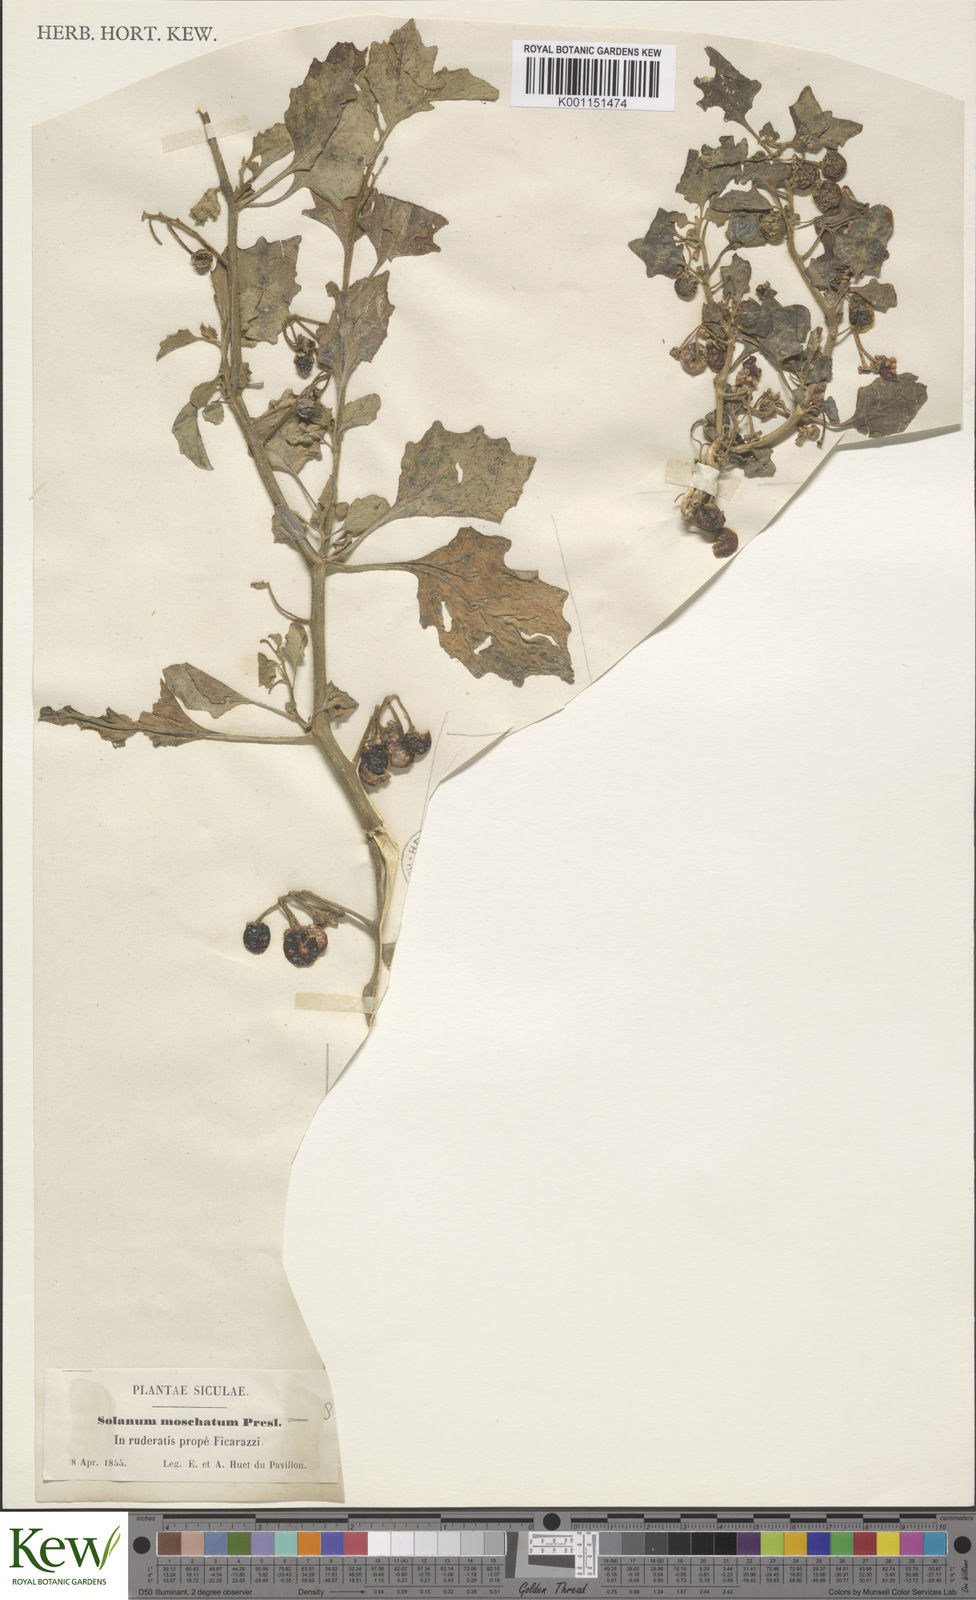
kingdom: Plantae
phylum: Tracheophyta
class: Magnoliopsida
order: Solanales
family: Solanaceae
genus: Solanum
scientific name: Solanum alatum
